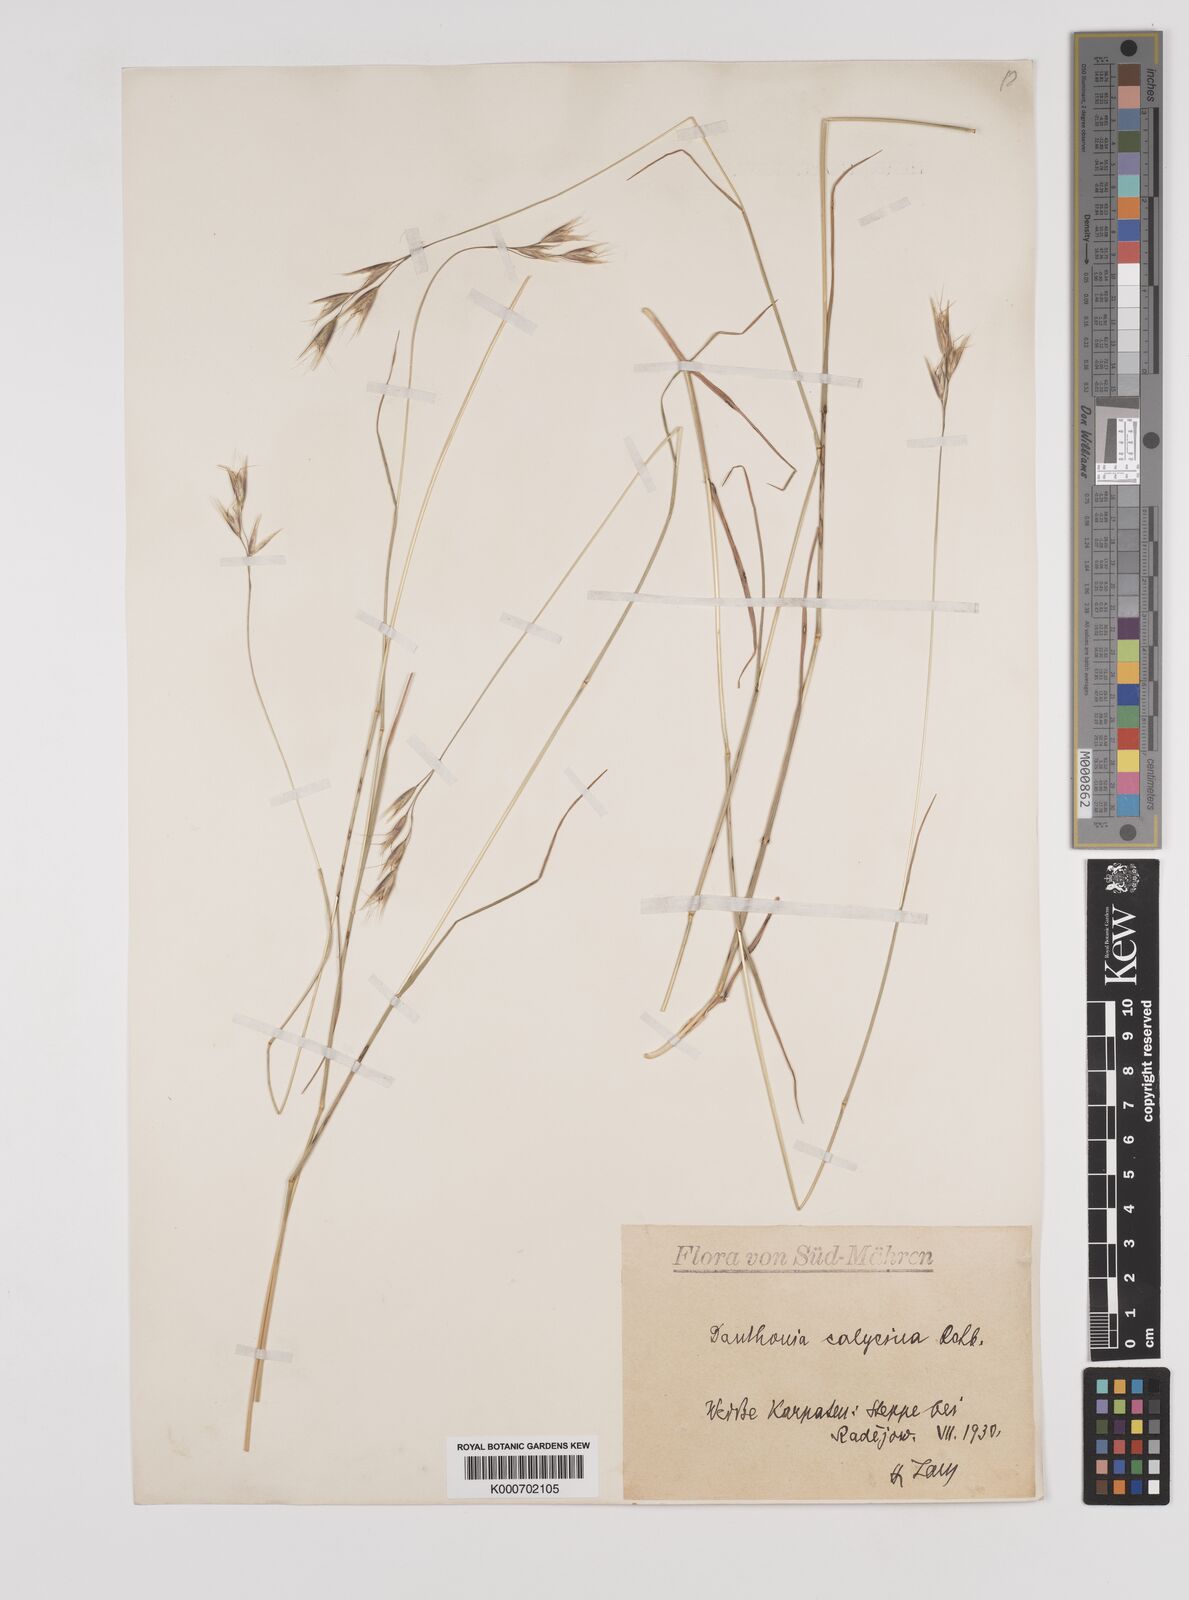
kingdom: Plantae
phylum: Tracheophyta
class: Liliopsida
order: Poales
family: Poaceae
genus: Danthonia
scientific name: Danthonia alpina
